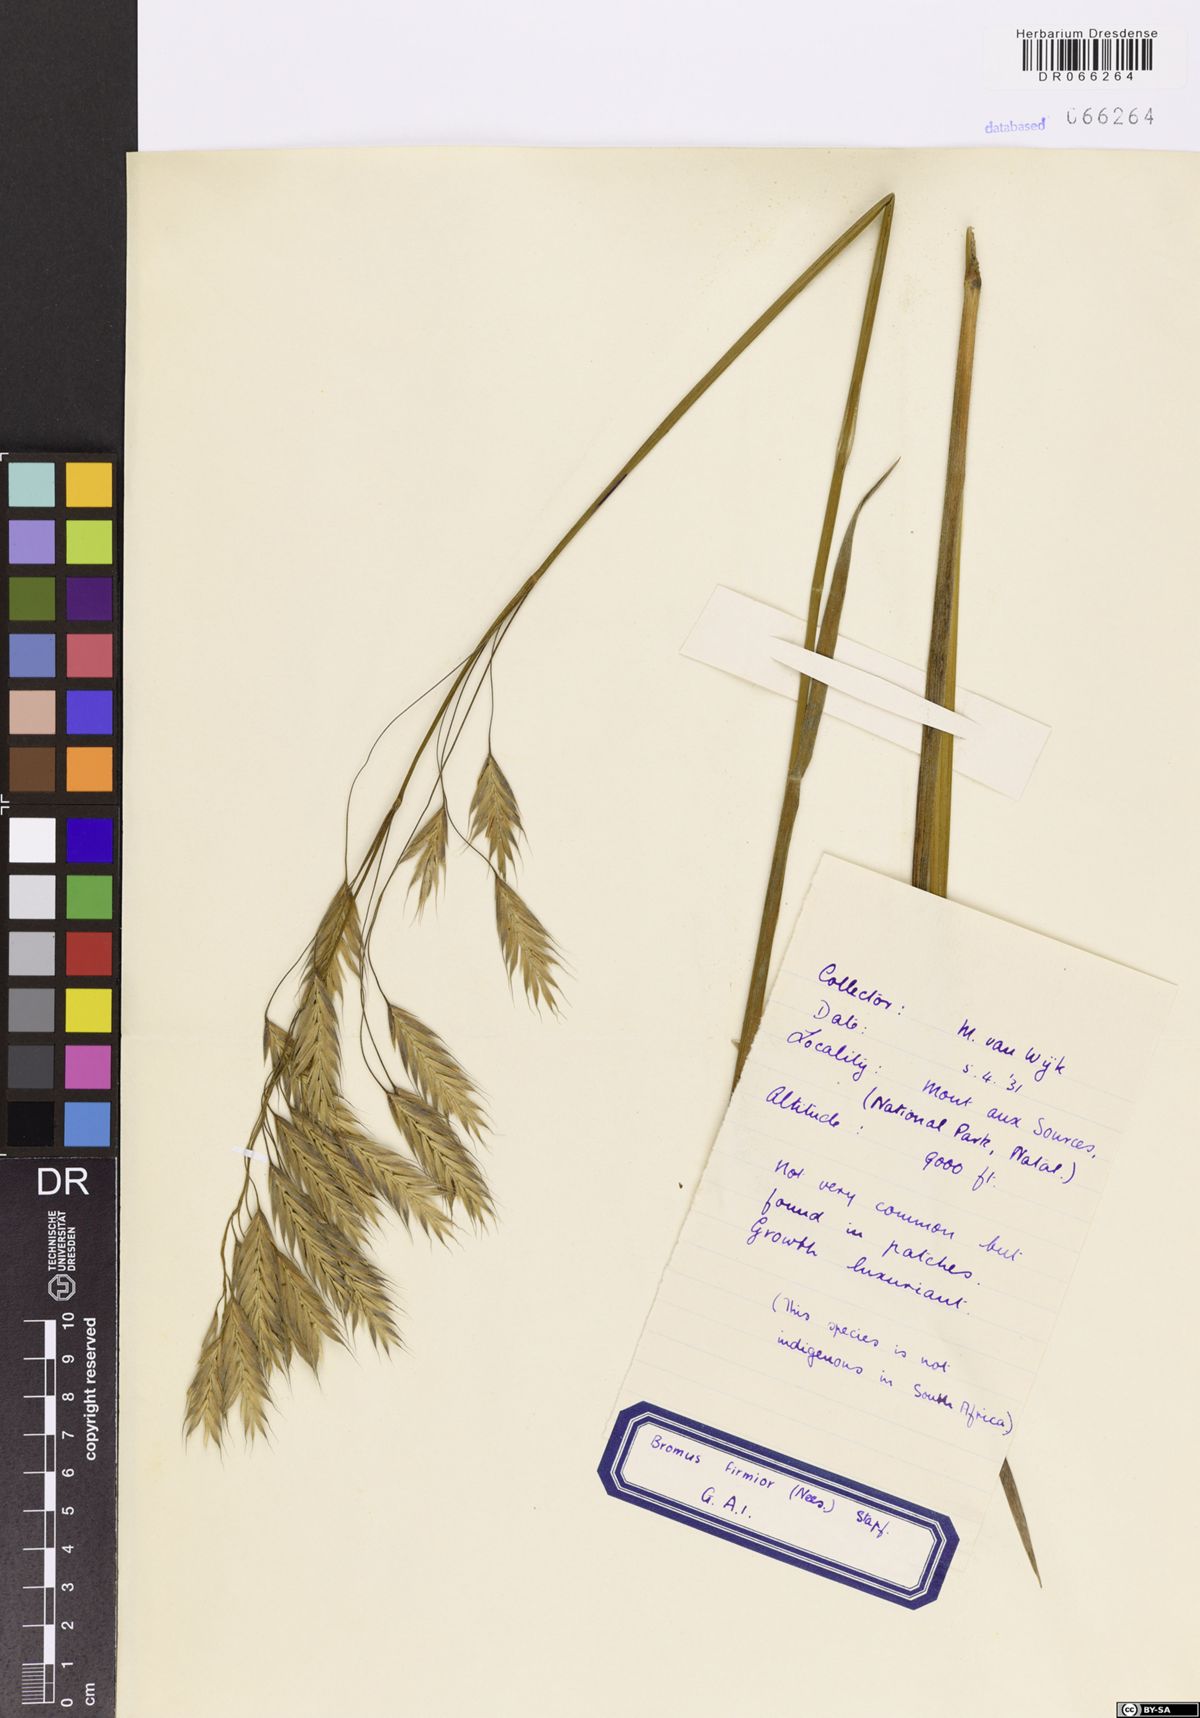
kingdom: Plantae
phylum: Tracheophyta
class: Liliopsida
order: Poales
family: Poaceae
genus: Bromus
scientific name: Bromus firmior
